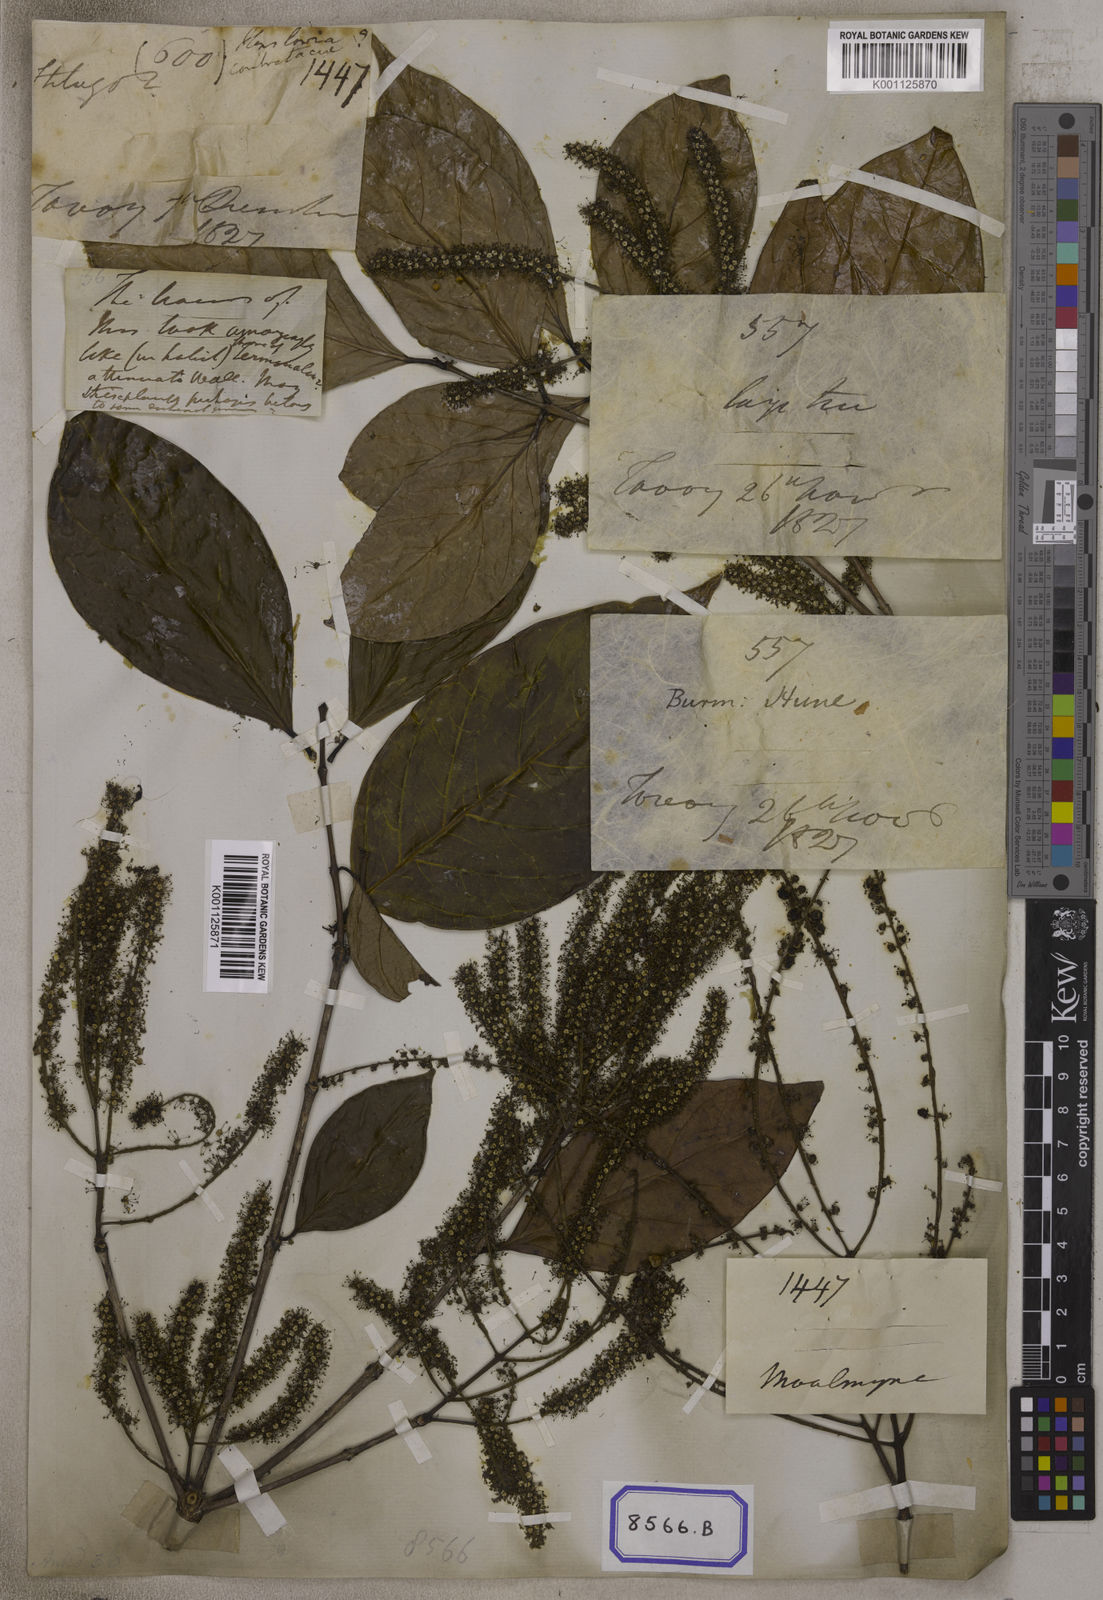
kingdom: Plantae
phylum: Tracheophyta
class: Magnoliopsida
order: Myrtales
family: Crypteroniaceae
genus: Crypteronia
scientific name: Crypteronia paniculata
